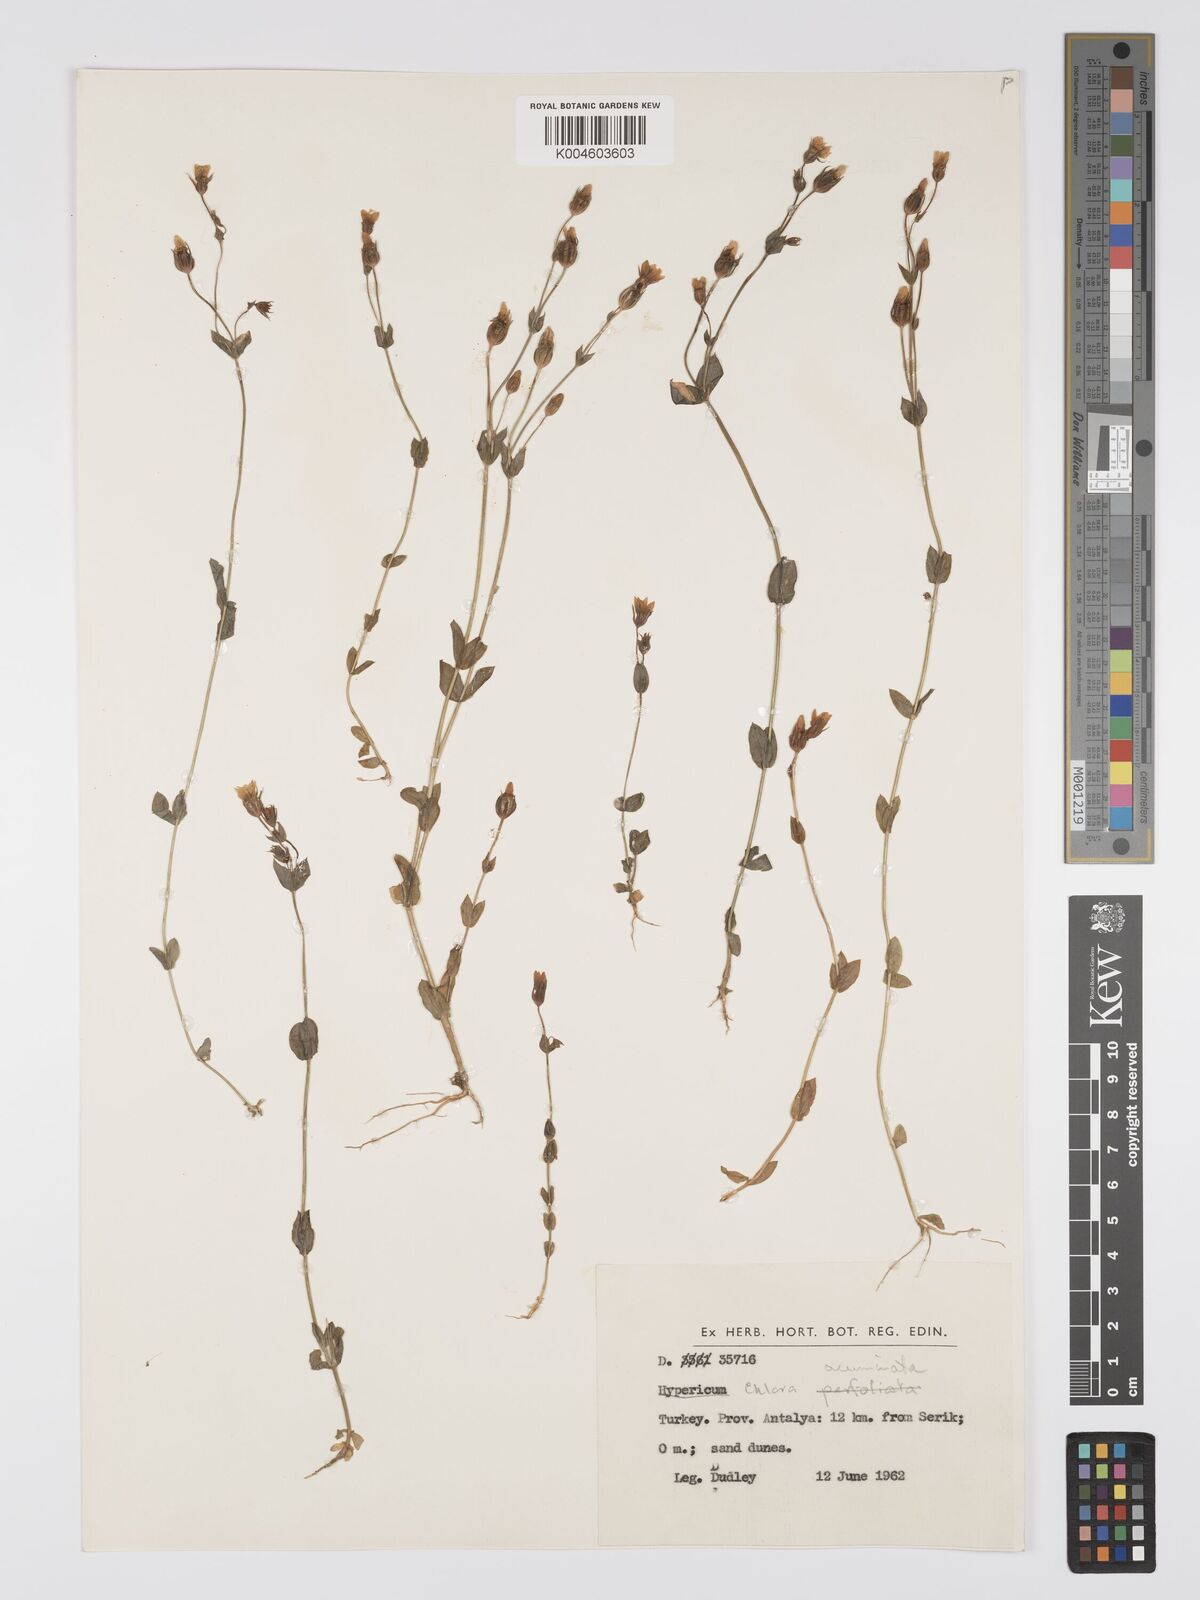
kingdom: Plantae
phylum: Tracheophyta
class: Magnoliopsida
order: Gentianales
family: Gentianaceae
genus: Blackstonia
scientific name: Blackstonia acuminata
